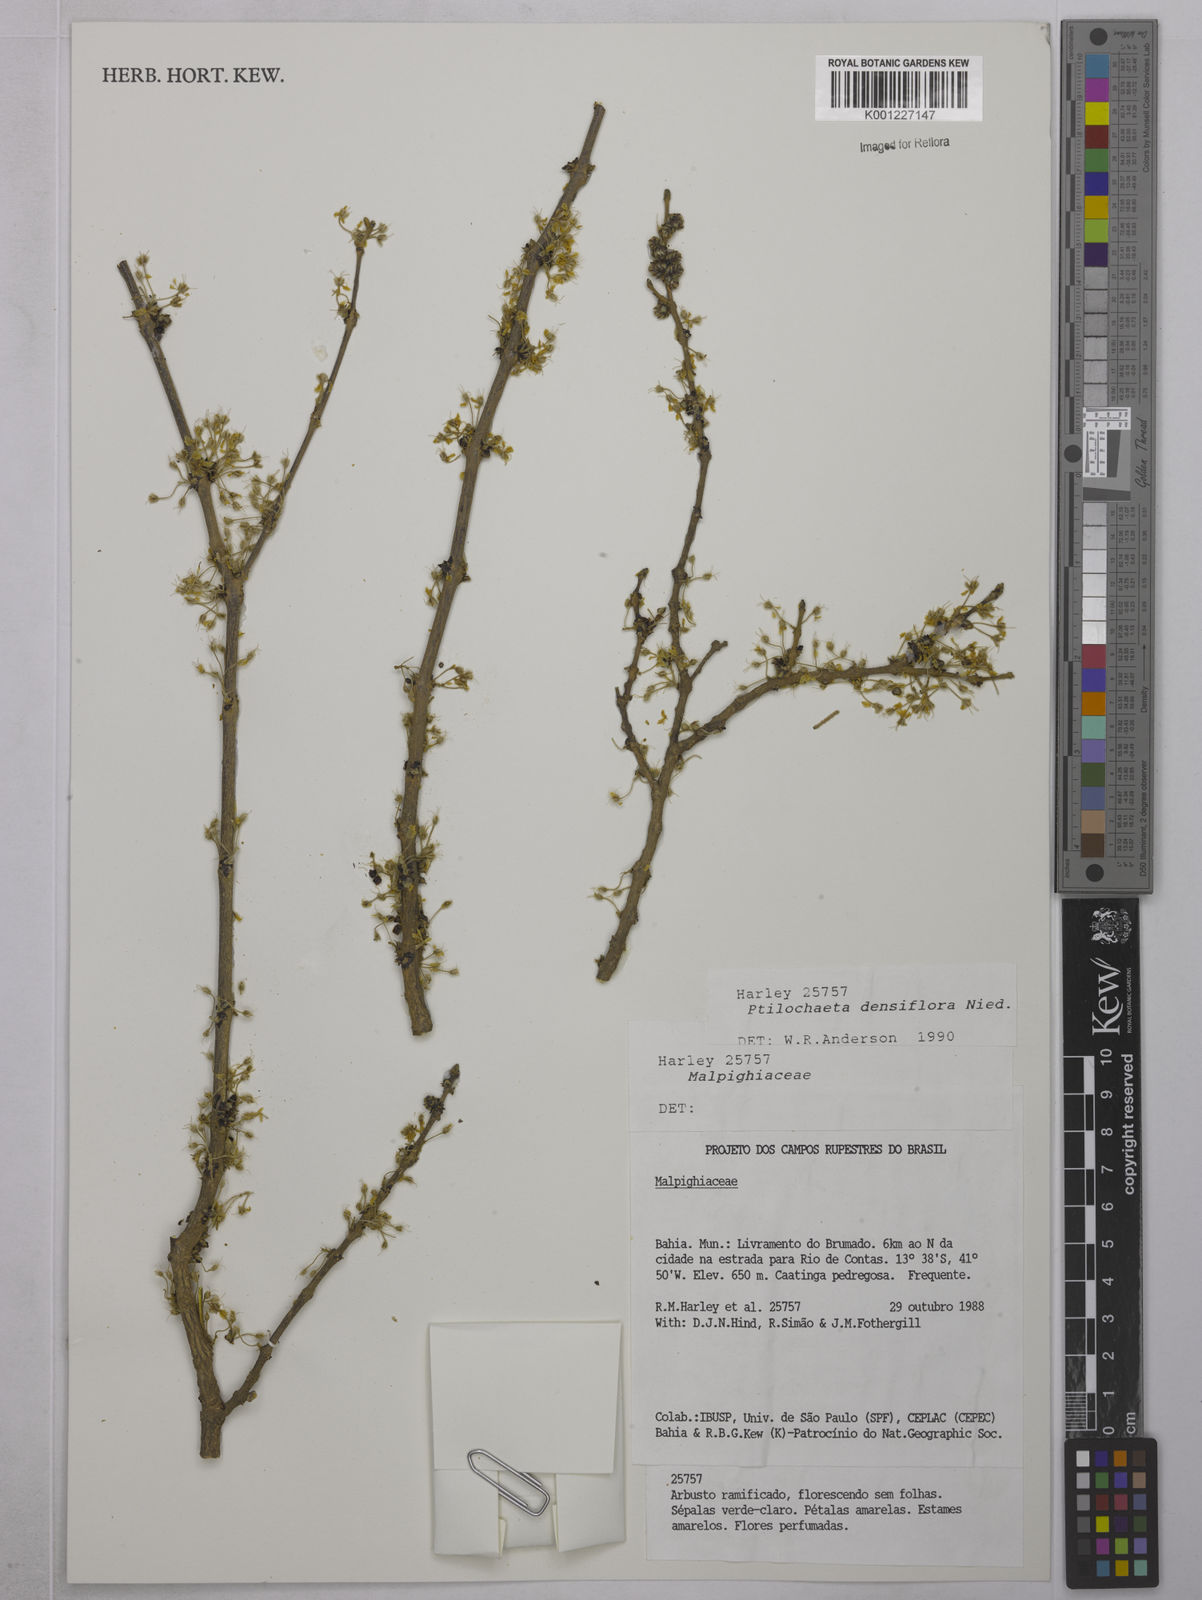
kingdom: Plantae
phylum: Tracheophyta
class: Magnoliopsida
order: Malpighiales
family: Malpighiaceae
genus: Ptilochaeta
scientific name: Ptilochaeta densiflora
